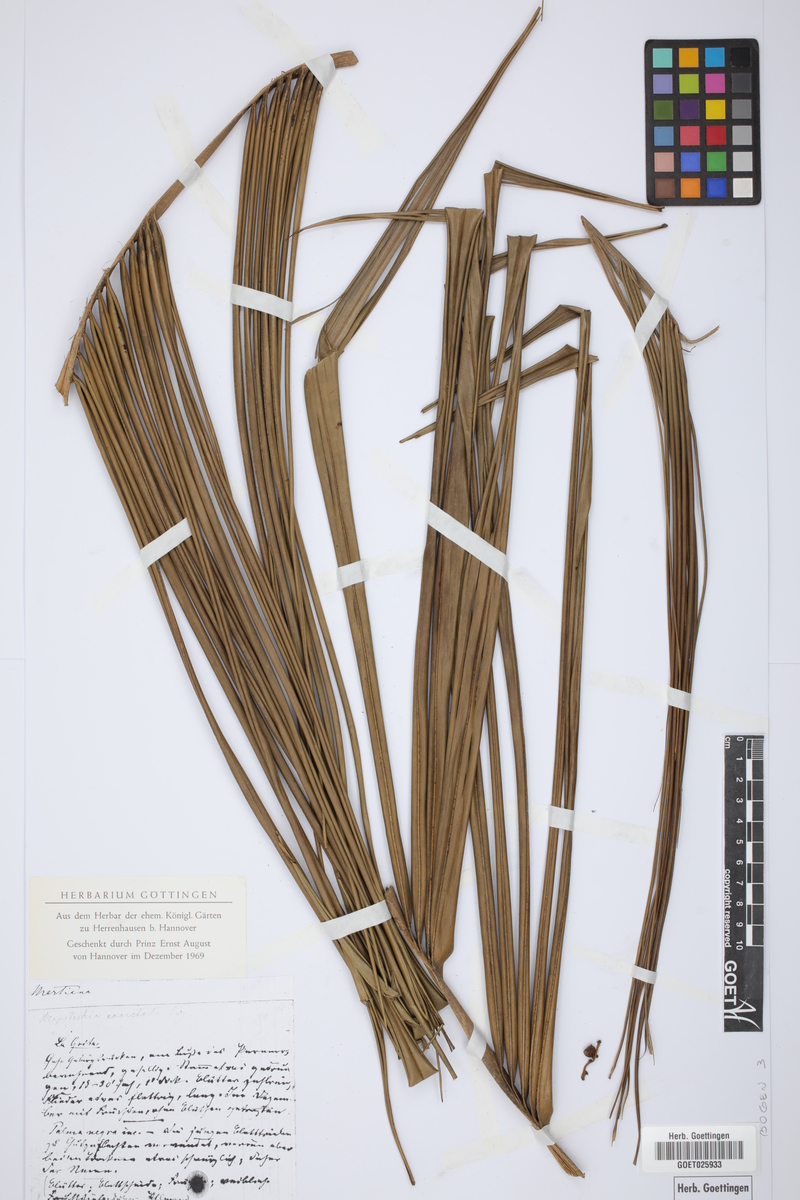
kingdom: Plantae
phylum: Tracheophyta
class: Liliopsida
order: Arecales
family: Arecaceae
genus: Ceroxylon
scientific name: Ceroxylon vogelianum
